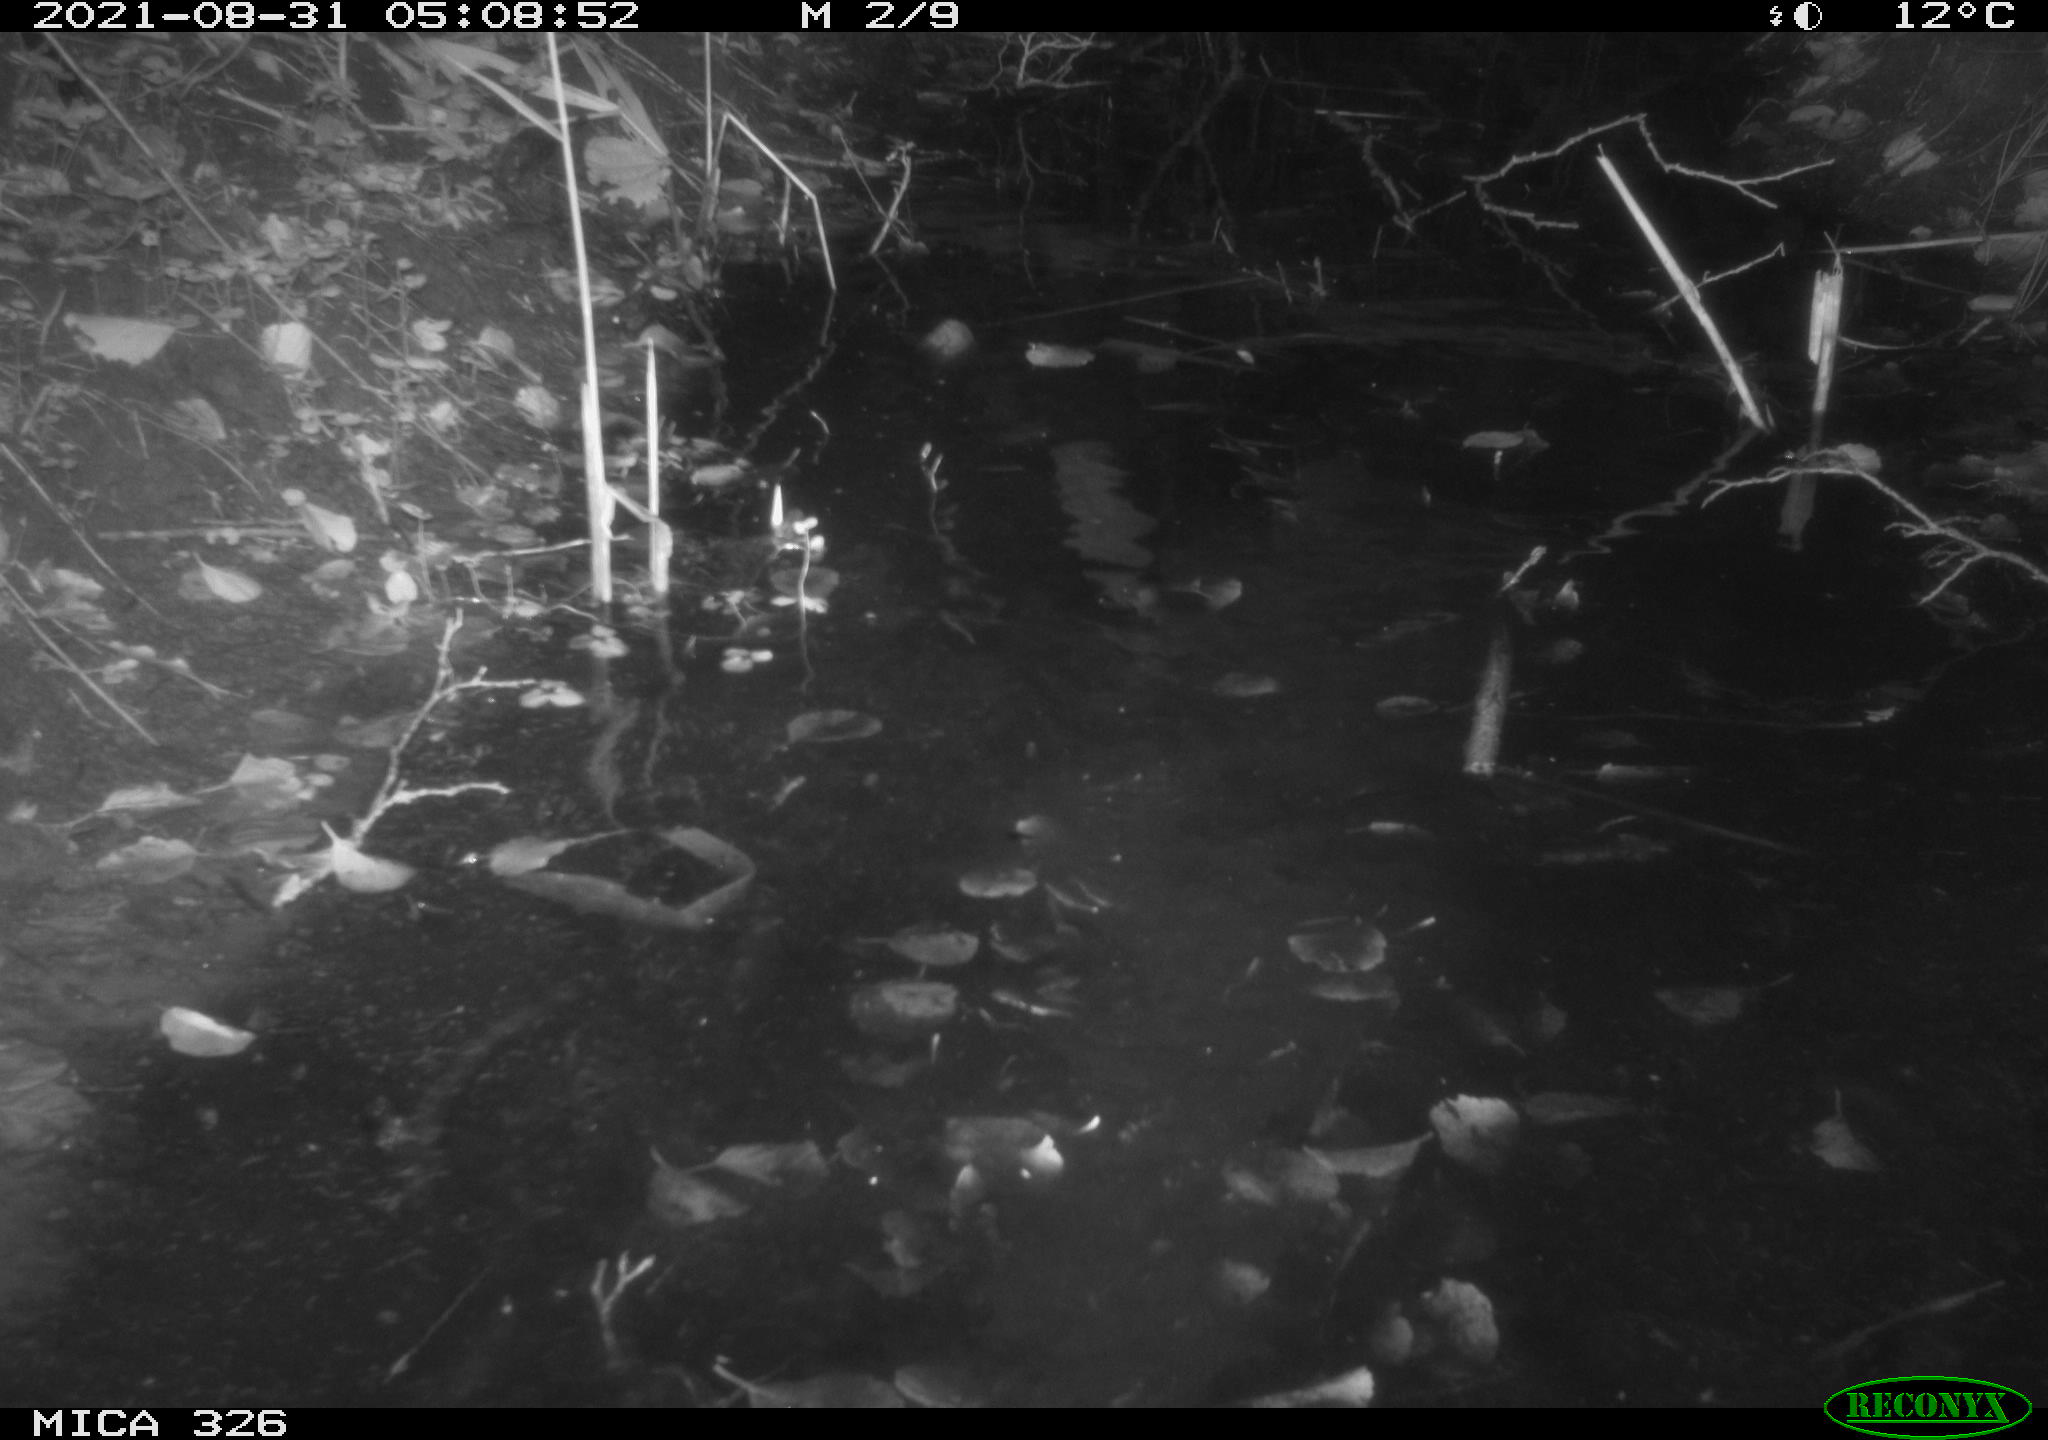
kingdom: Animalia
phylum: Chordata
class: Mammalia
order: Rodentia
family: Cricetidae
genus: Ondatra
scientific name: Ondatra zibethicus
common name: Muskrat
